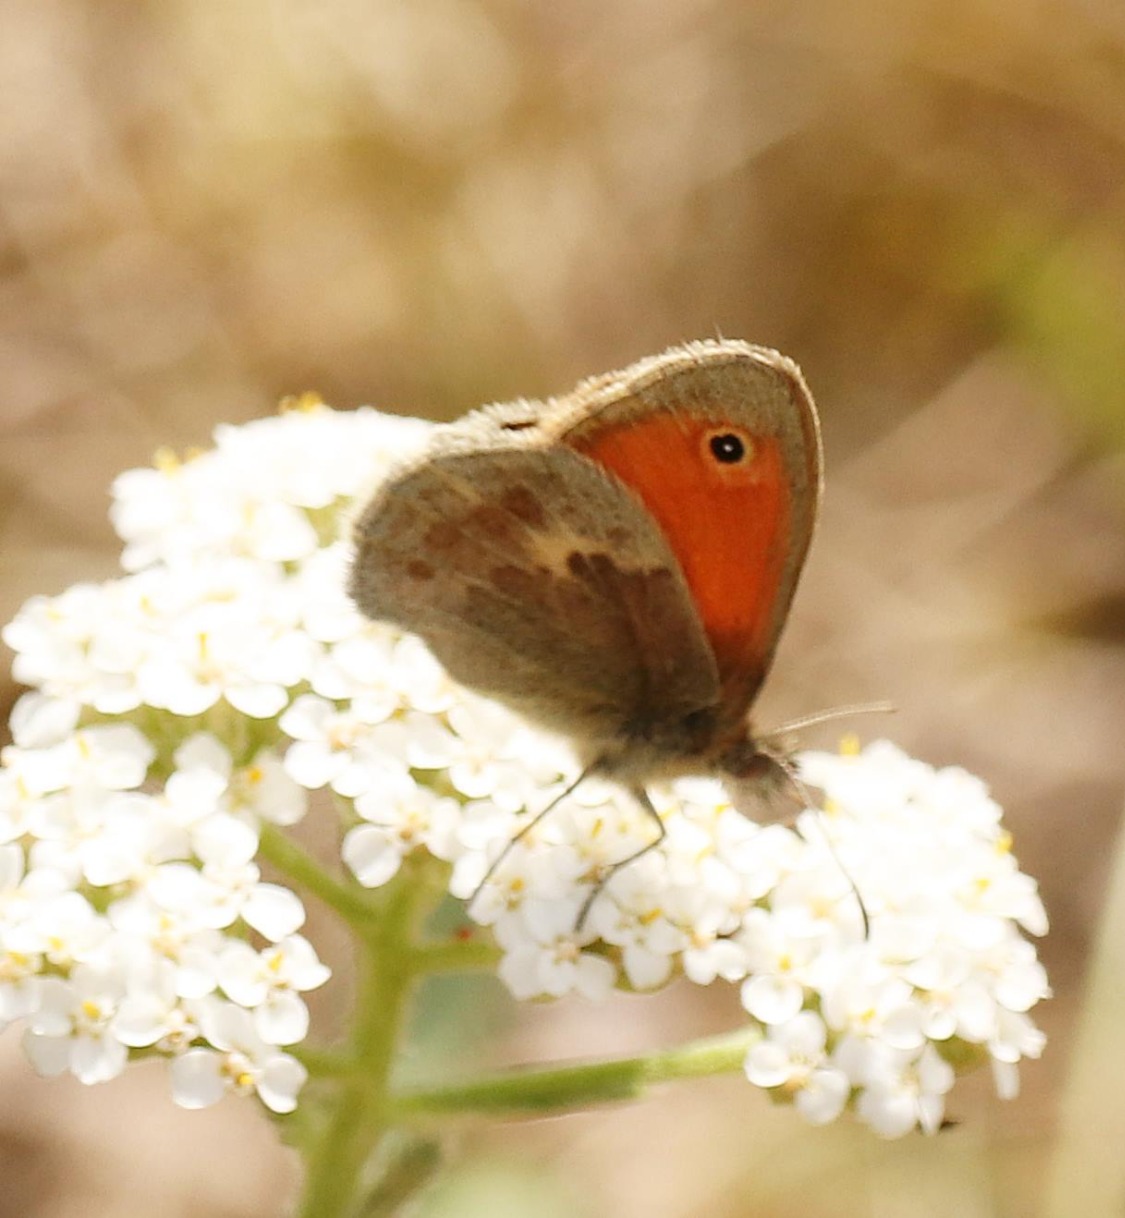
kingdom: Animalia
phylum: Arthropoda
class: Insecta
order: Lepidoptera
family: Nymphalidae
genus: Coenonympha
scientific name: Coenonympha pamphilus
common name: Okkergul randøje
